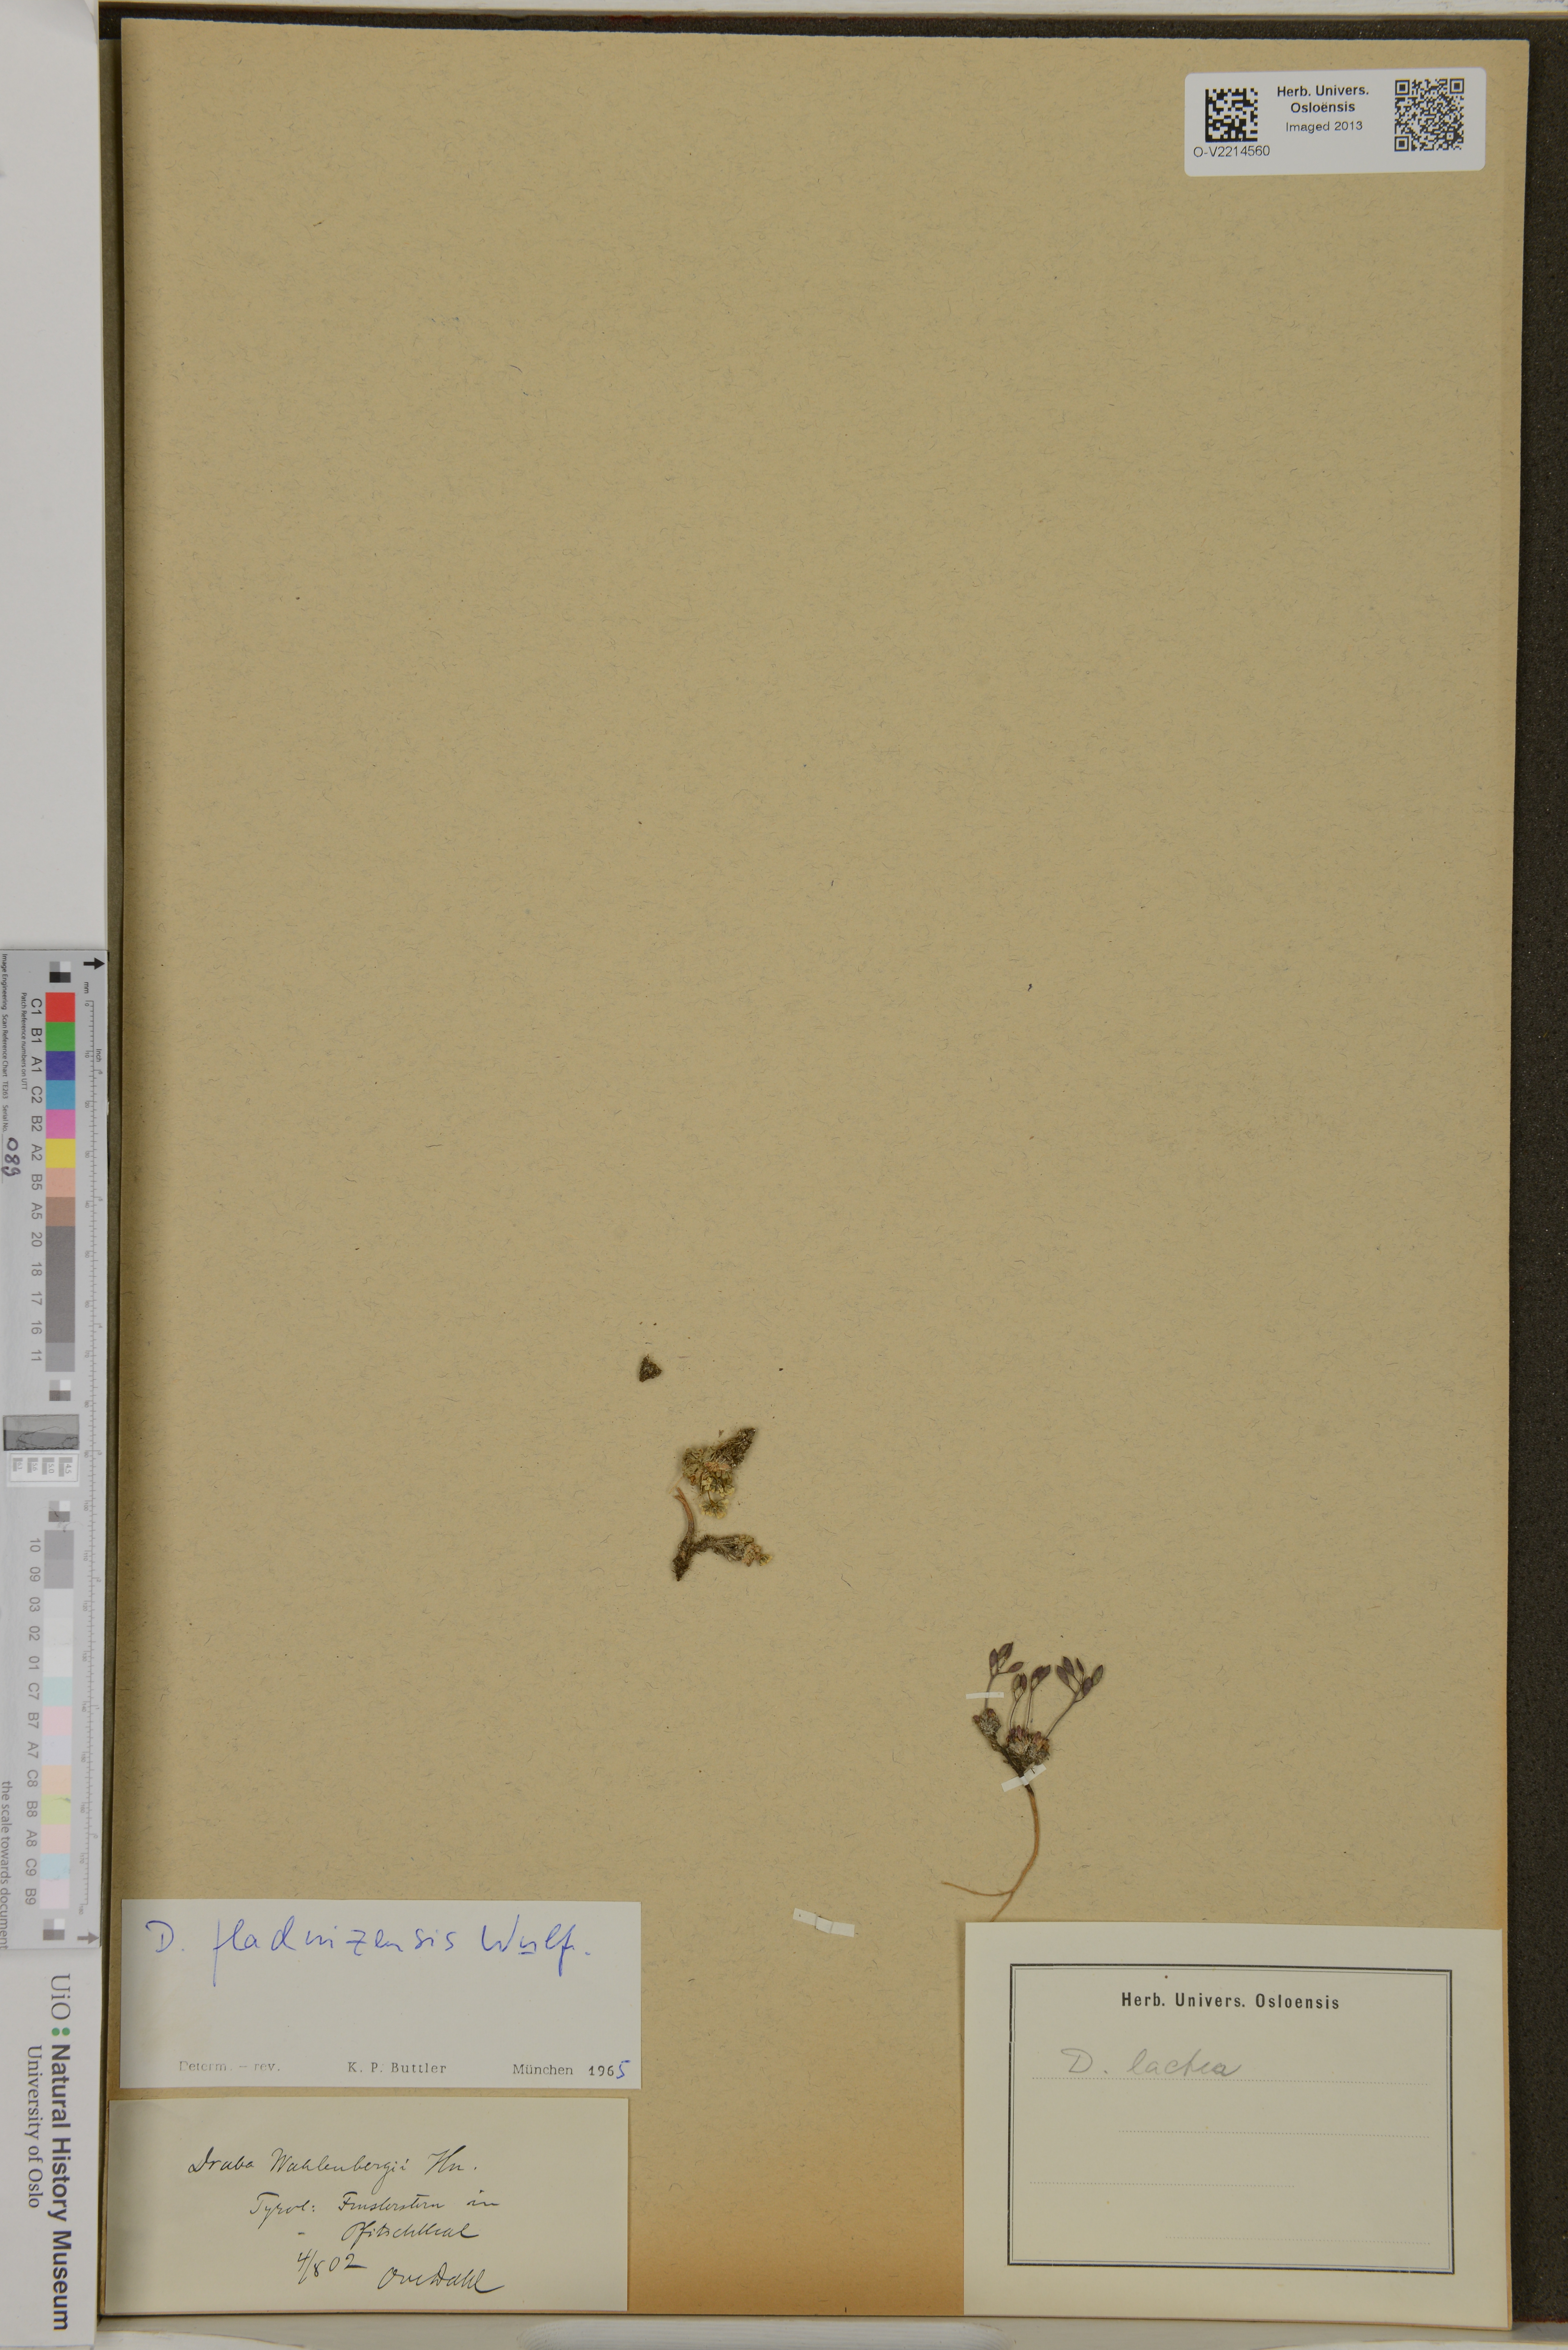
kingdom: Plantae
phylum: Tracheophyta
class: Magnoliopsida
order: Brassicales
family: Brassicaceae
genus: Draba
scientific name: Draba lactea
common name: Milky draba
